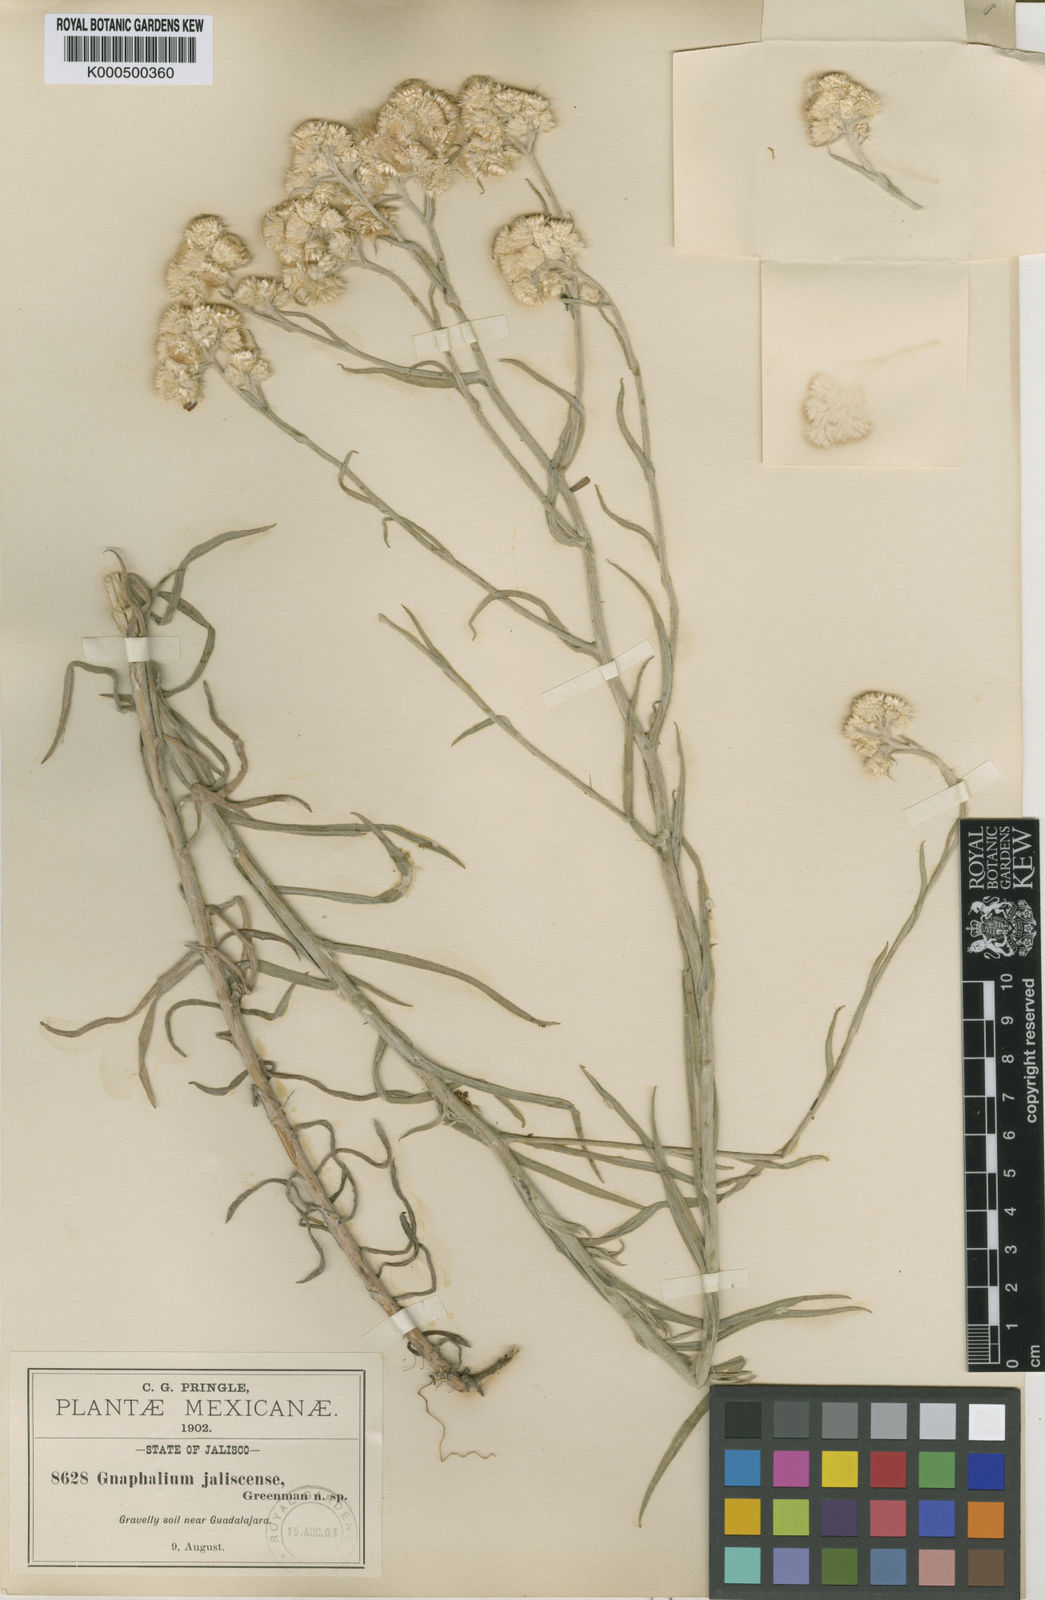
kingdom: Plantae
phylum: Tracheophyta
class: Magnoliopsida
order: Asterales
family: Asteraceae
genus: Pseudognaphalium
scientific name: Pseudognaphalium jaliscense
